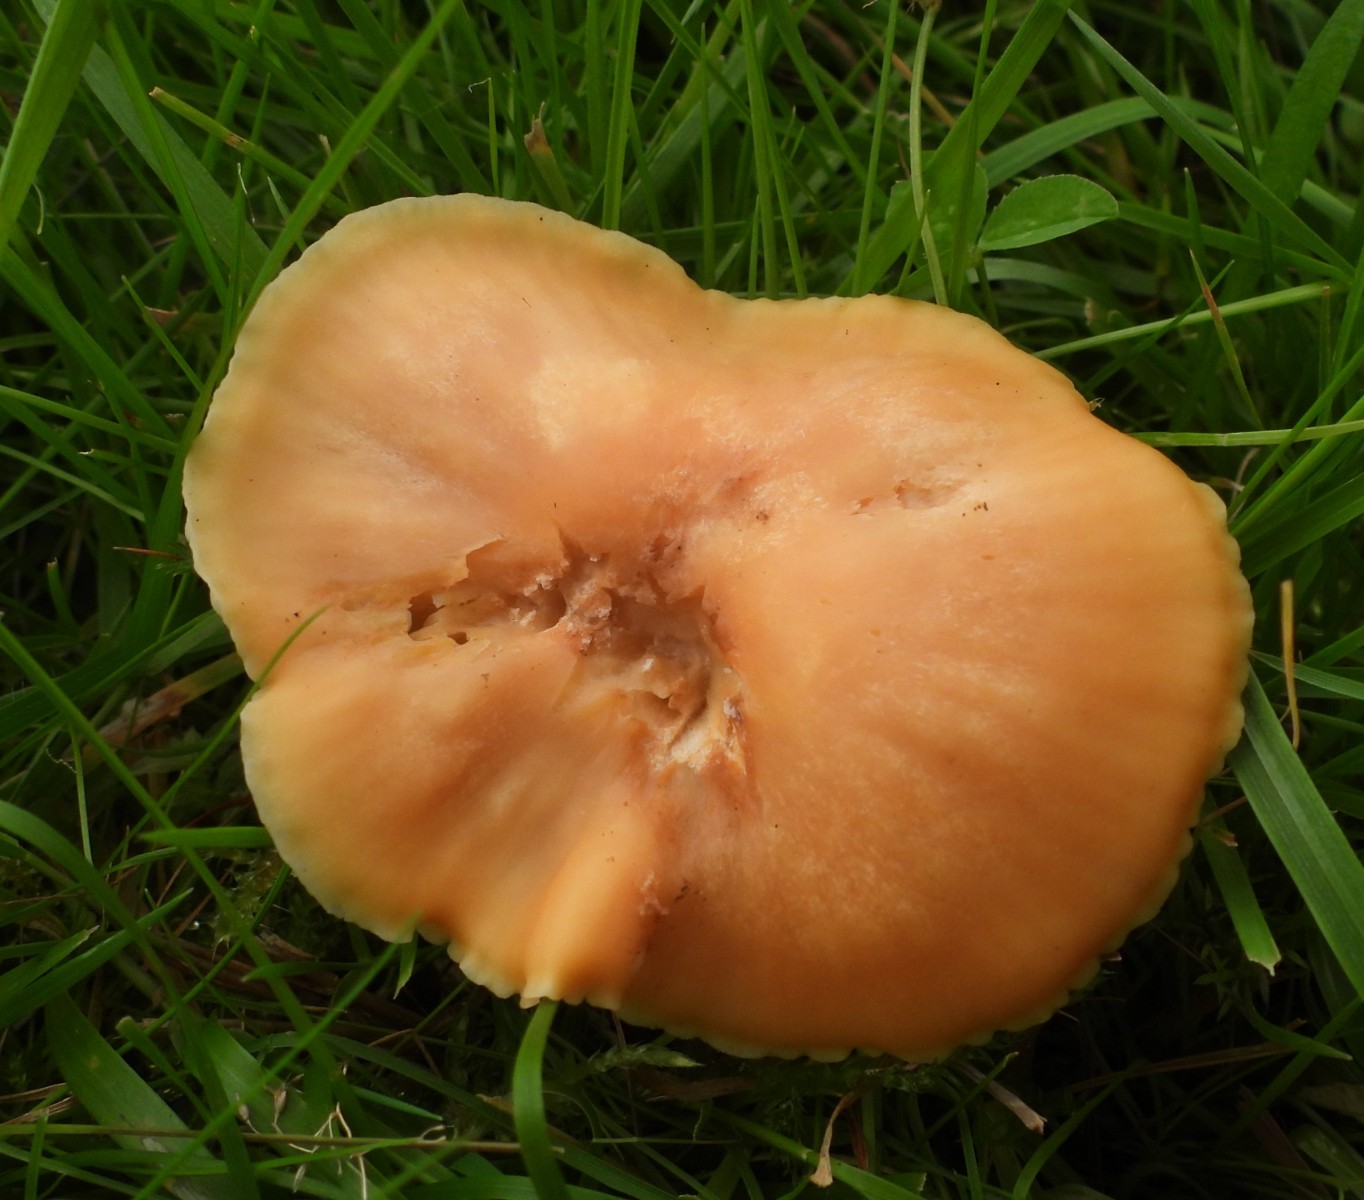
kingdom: Fungi
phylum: Basidiomycota
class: Agaricomycetes
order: Agaricales
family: Hygrophoraceae
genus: Cuphophyllus
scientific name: Cuphophyllus pratensis
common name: eng-vokshat
